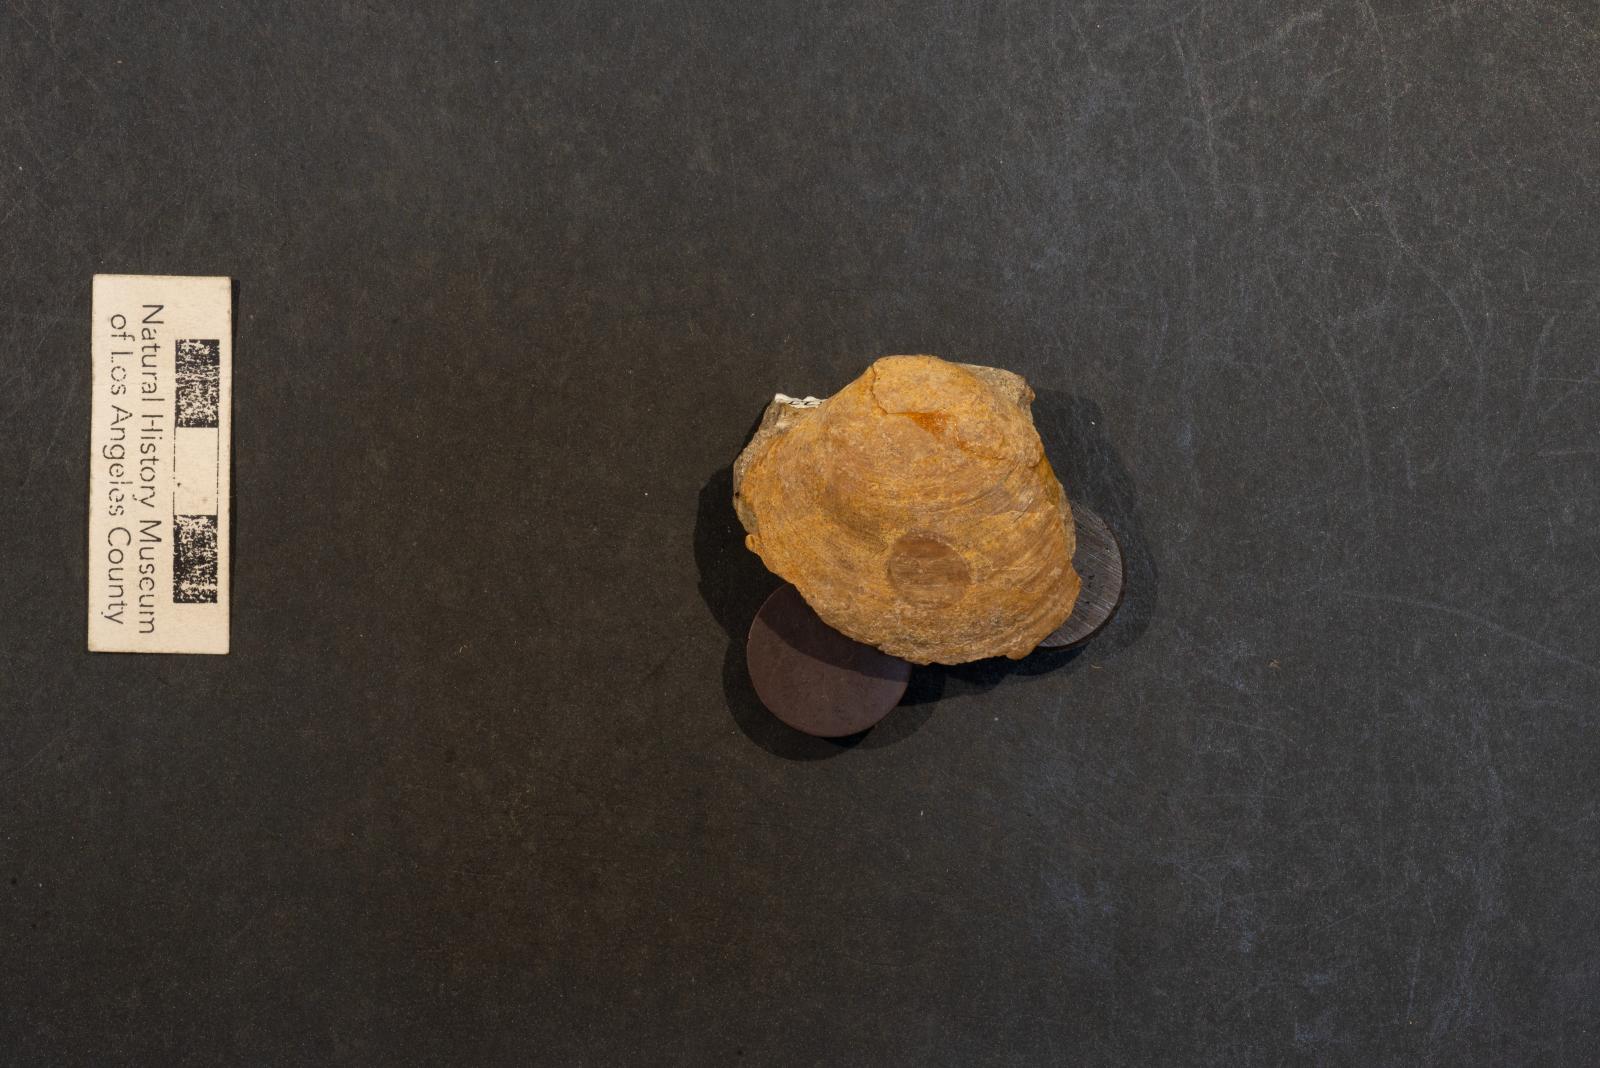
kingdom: Animalia
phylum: Mollusca
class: Bivalvia
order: Venerida
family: Veneridae
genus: Paraesa
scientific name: Paraesa Meretrix lens
